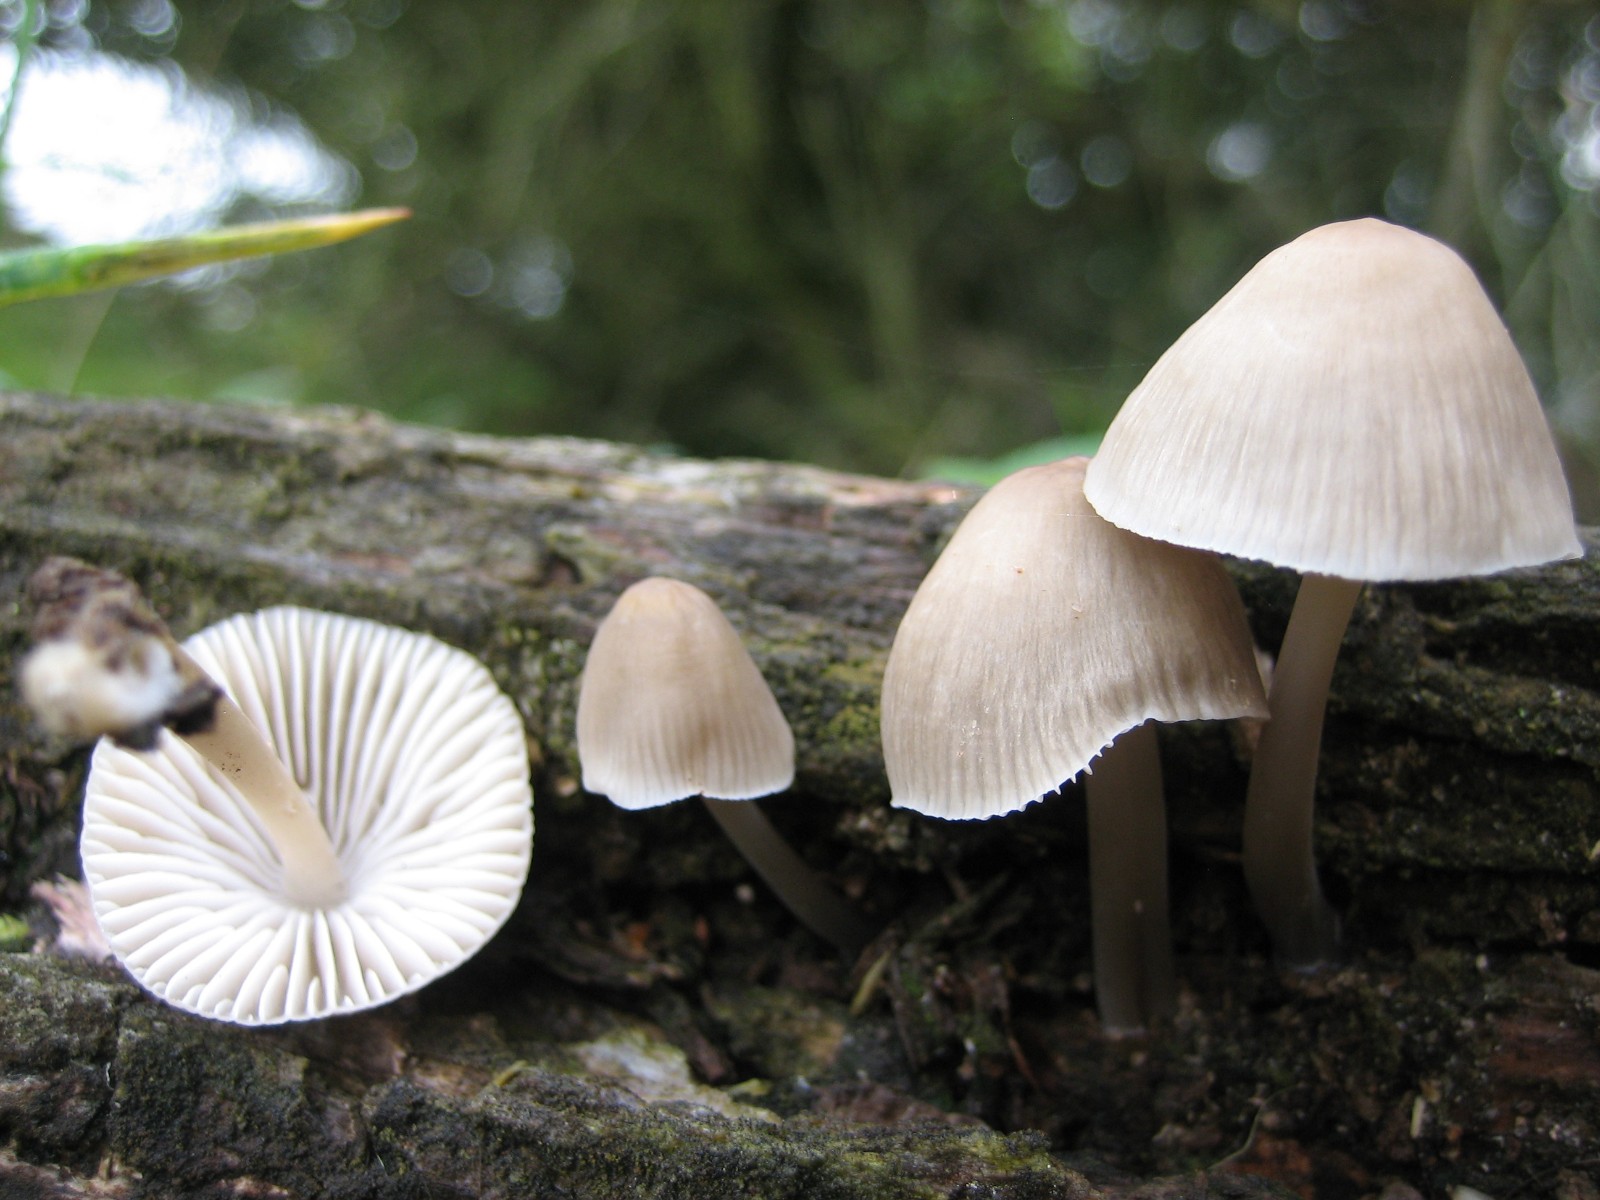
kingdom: Fungi
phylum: Basidiomycota
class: Agaricomycetes
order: Agaricales
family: Mycenaceae
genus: Mycena
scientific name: Mycena galericulata
